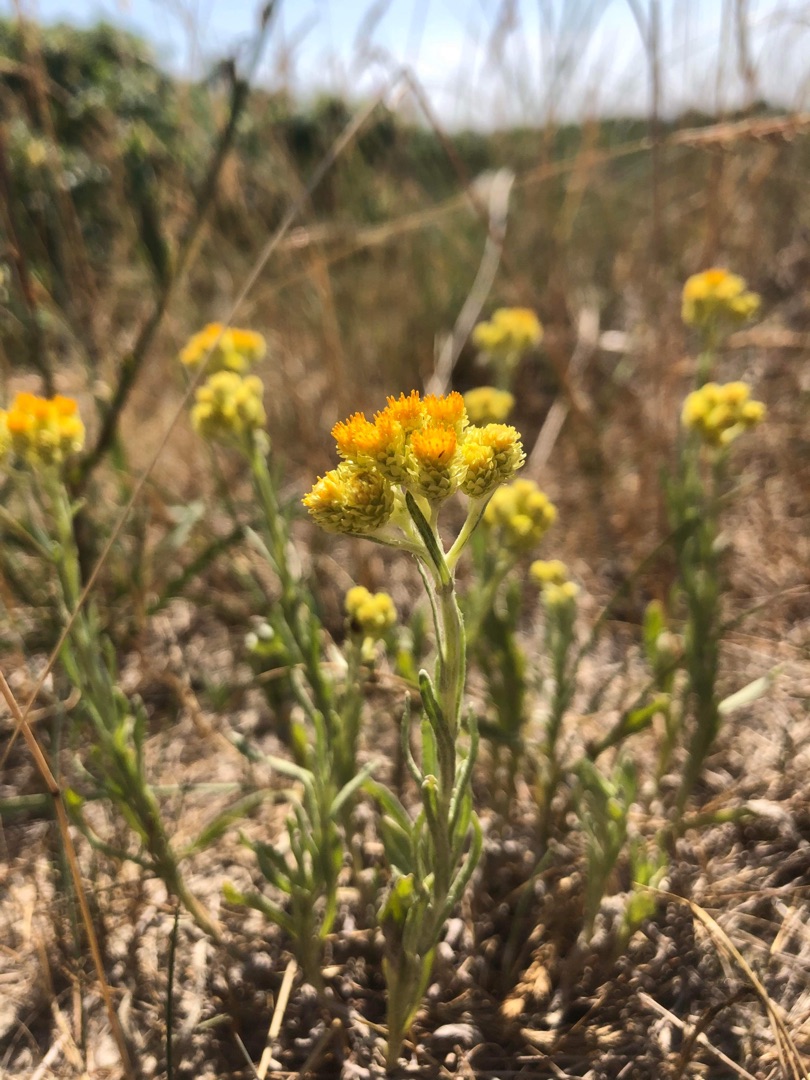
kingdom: Plantae
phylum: Tracheophyta
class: Magnoliopsida
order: Asterales
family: Asteraceae
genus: Helichrysum
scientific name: Helichrysum arenarium
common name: Gul evighedsblomst
